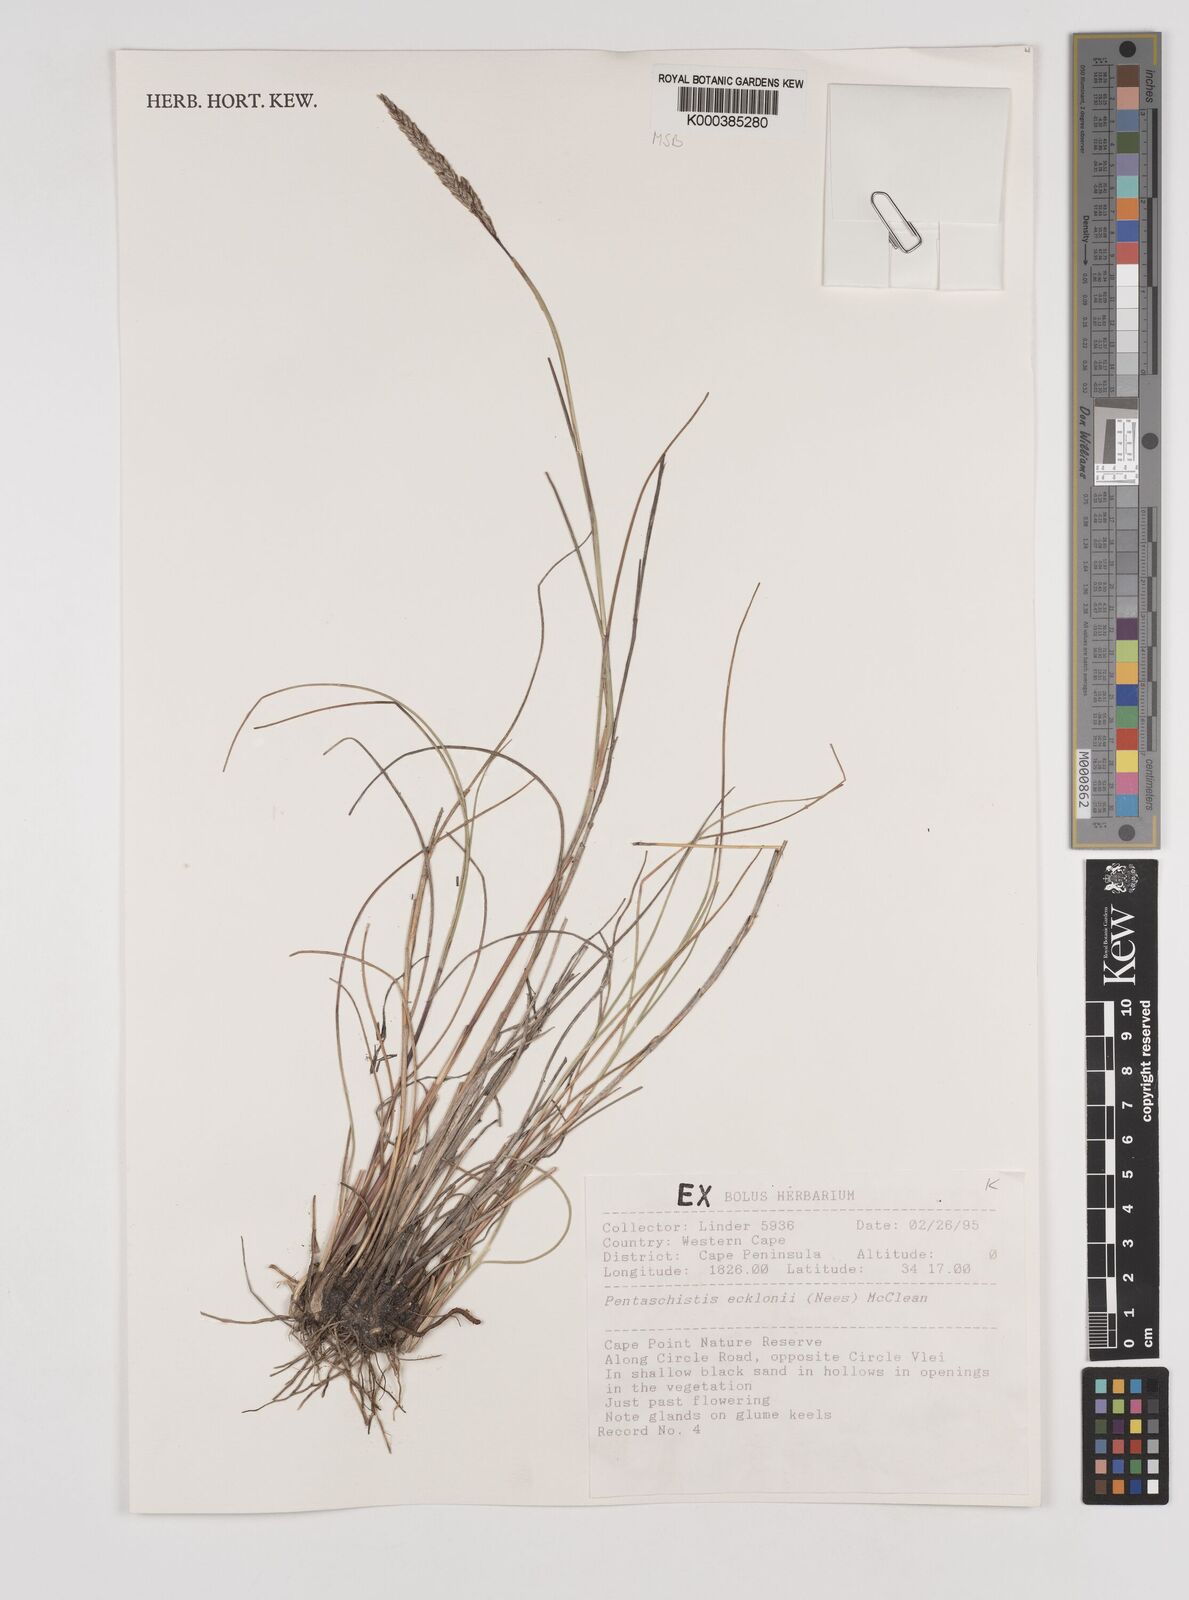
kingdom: Plantae
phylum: Tracheophyta
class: Liliopsida
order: Poales
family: Poaceae
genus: Pentameris
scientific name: Pentameris ecklonii
